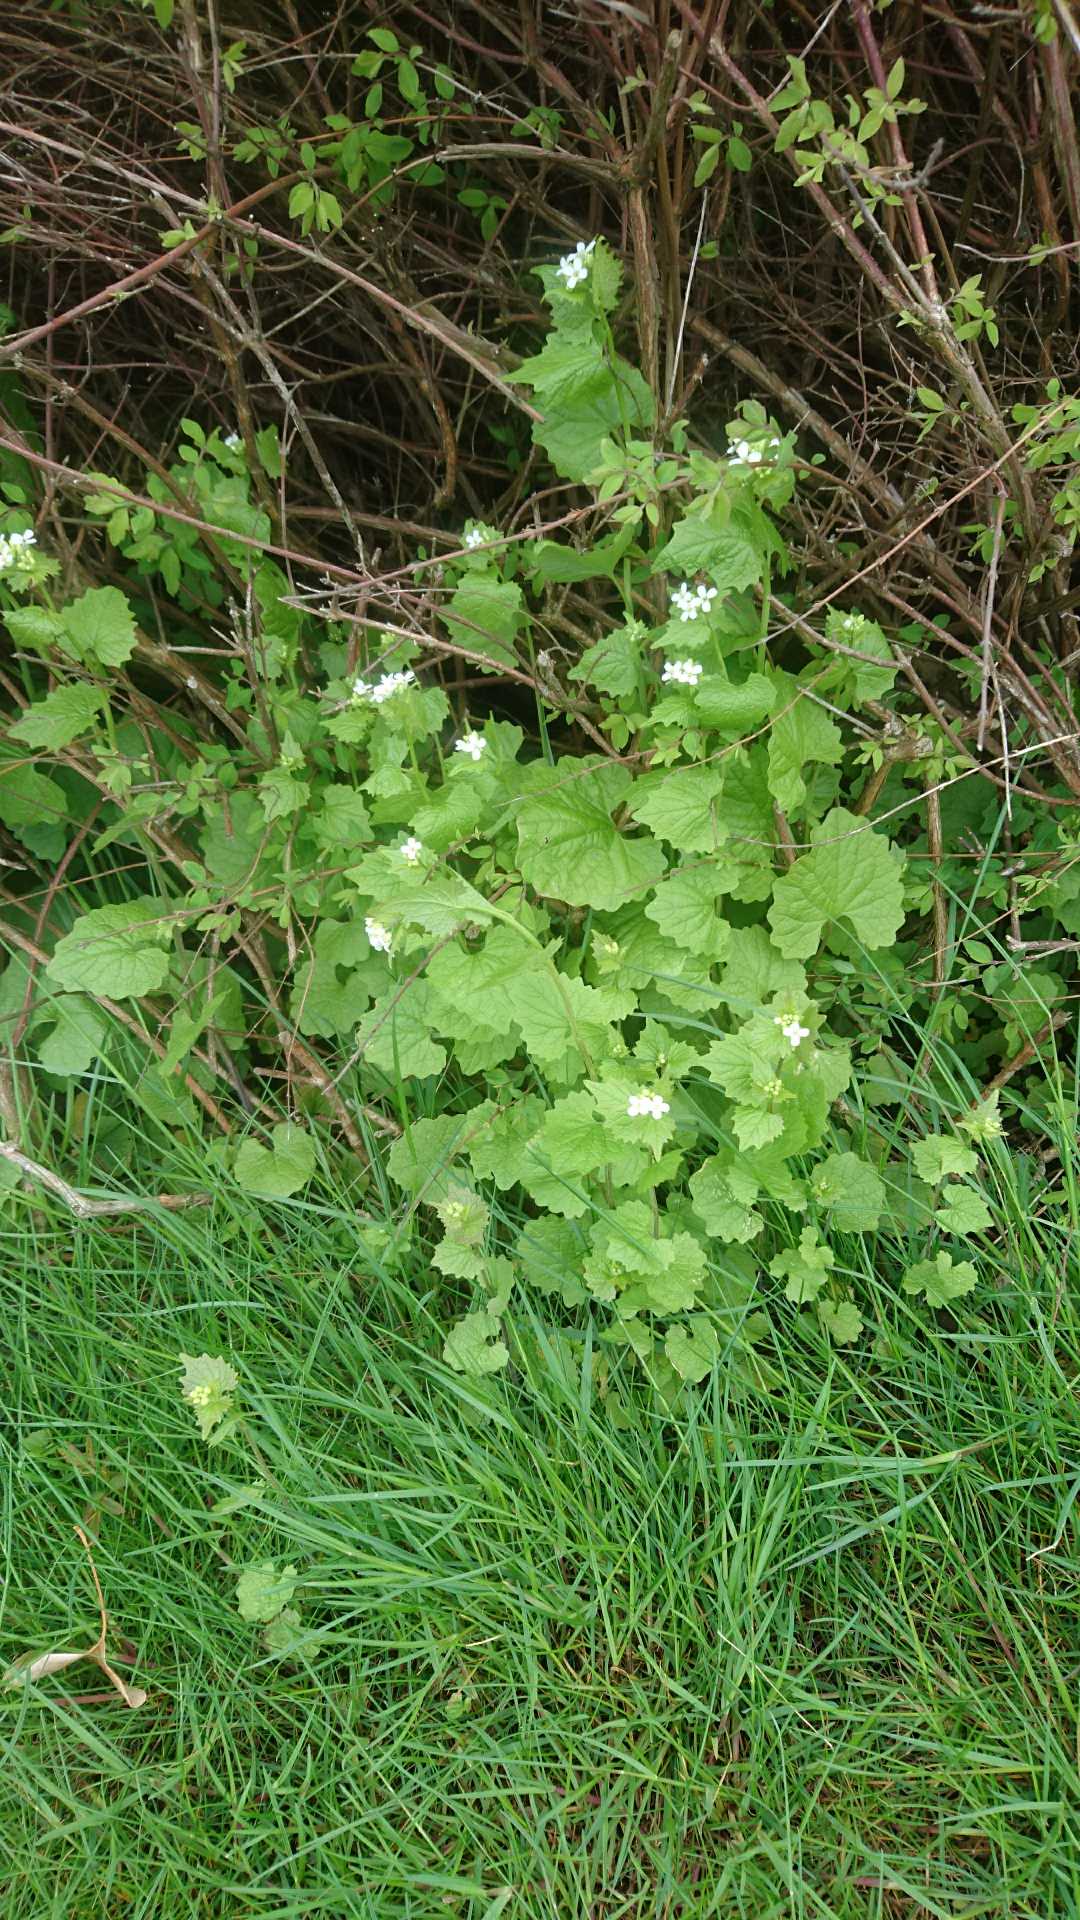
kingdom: Plantae
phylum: Tracheophyta
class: Magnoliopsida
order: Brassicales
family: Brassicaceae
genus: Alliaria
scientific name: Alliaria petiolata
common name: Løgkarse
